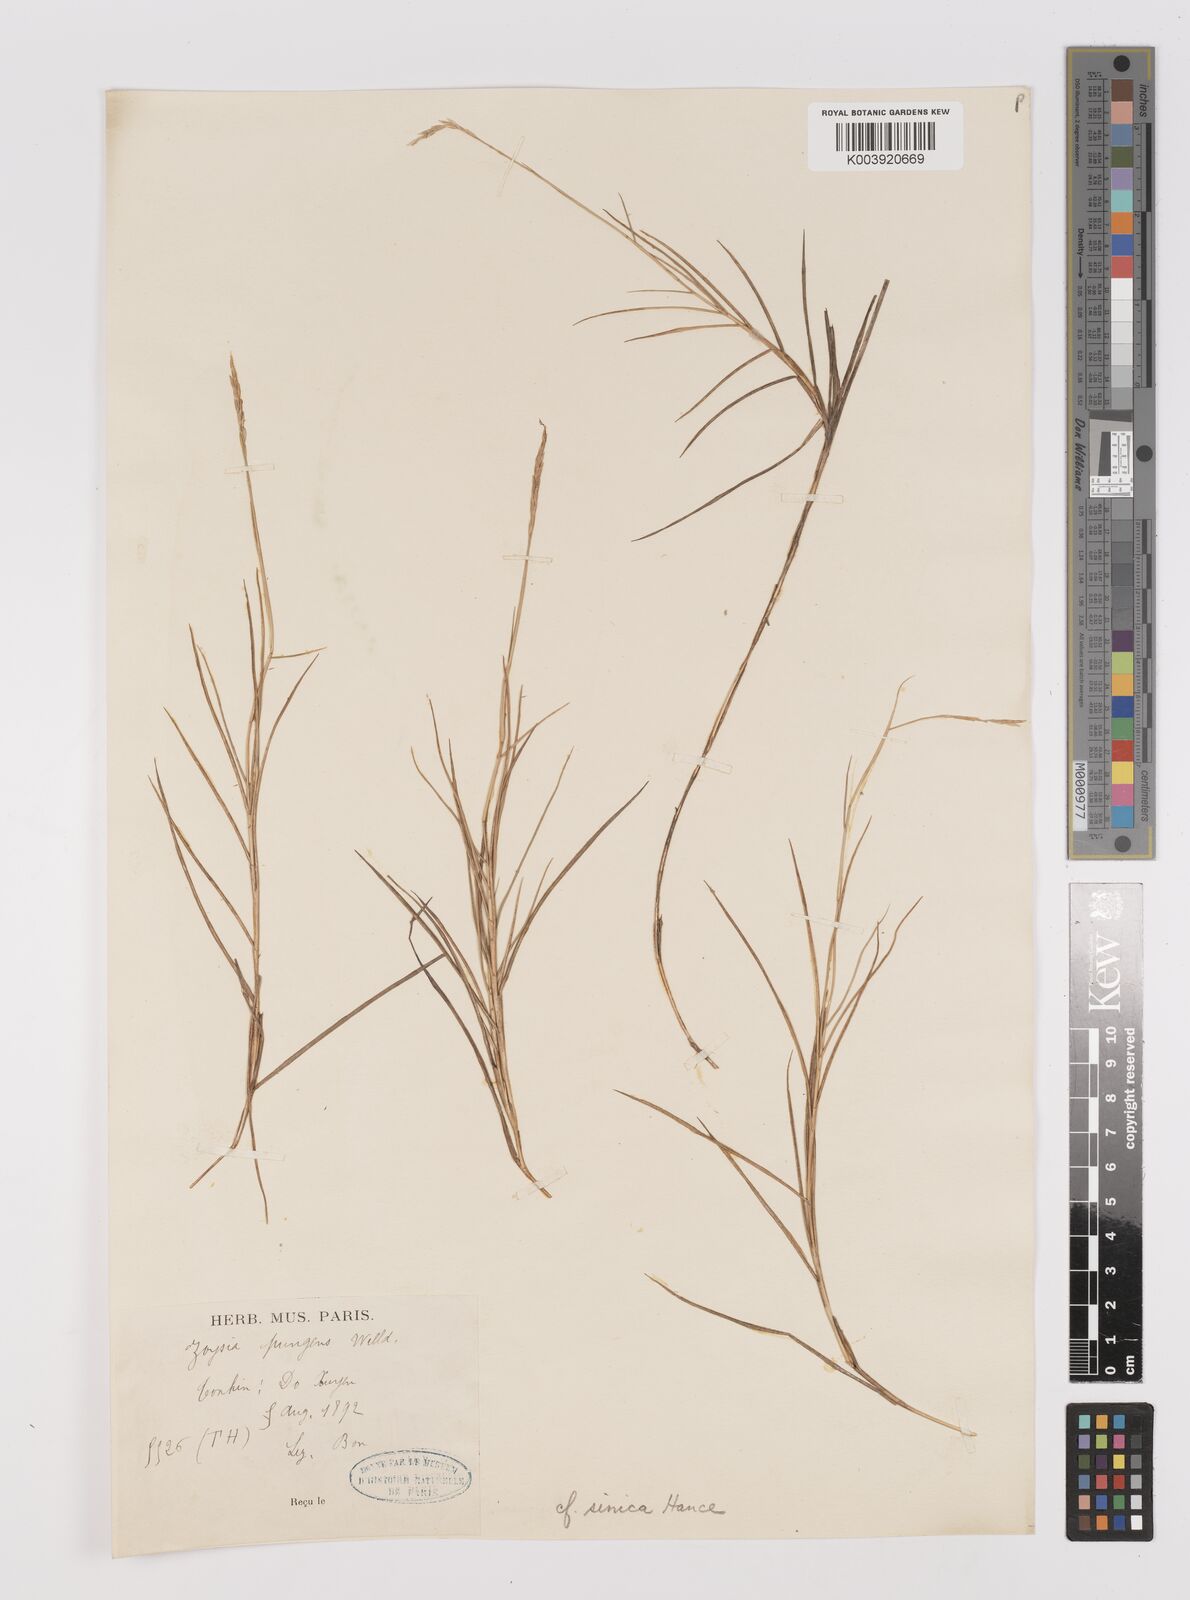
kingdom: Plantae
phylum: Tracheophyta
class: Liliopsida
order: Poales
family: Poaceae
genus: Zoysia
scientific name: Zoysia sinica
